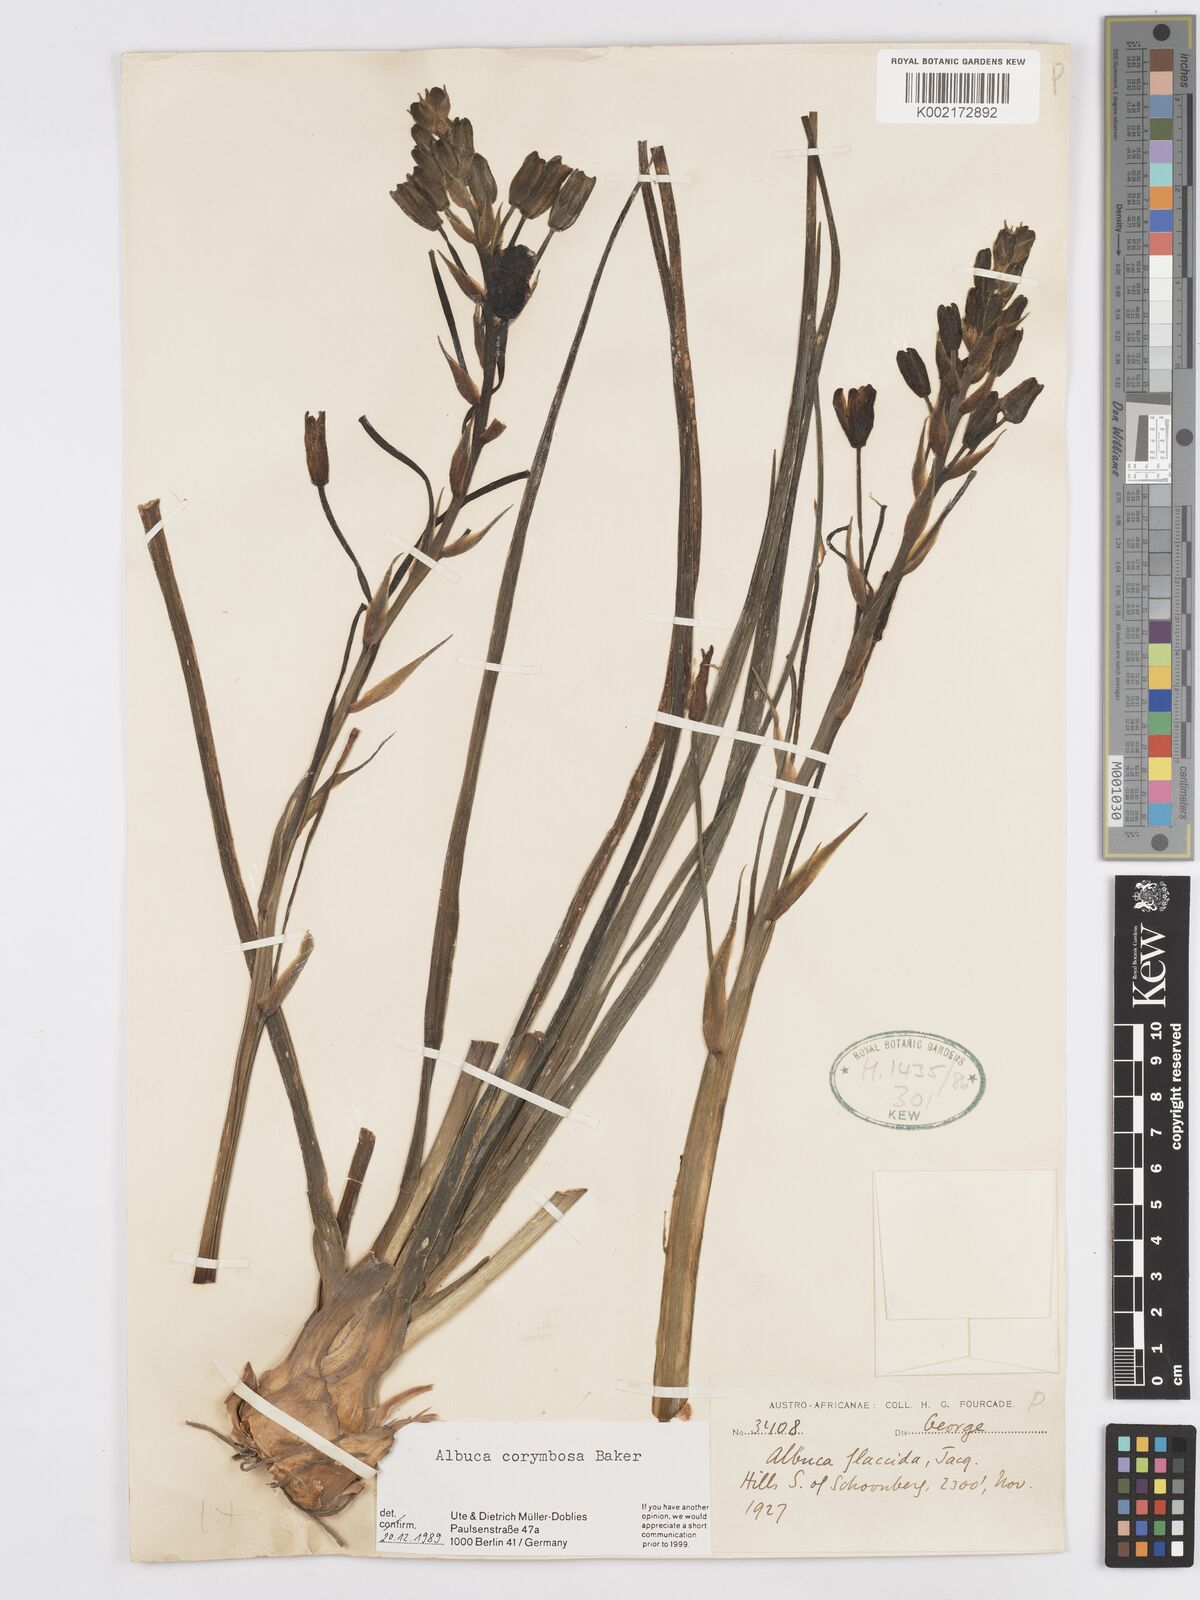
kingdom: Plantae
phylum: Tracheophyta
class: Liliopsida
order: Asparagales
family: Asparagaceae
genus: Albuca
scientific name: Albuca corymbosa
